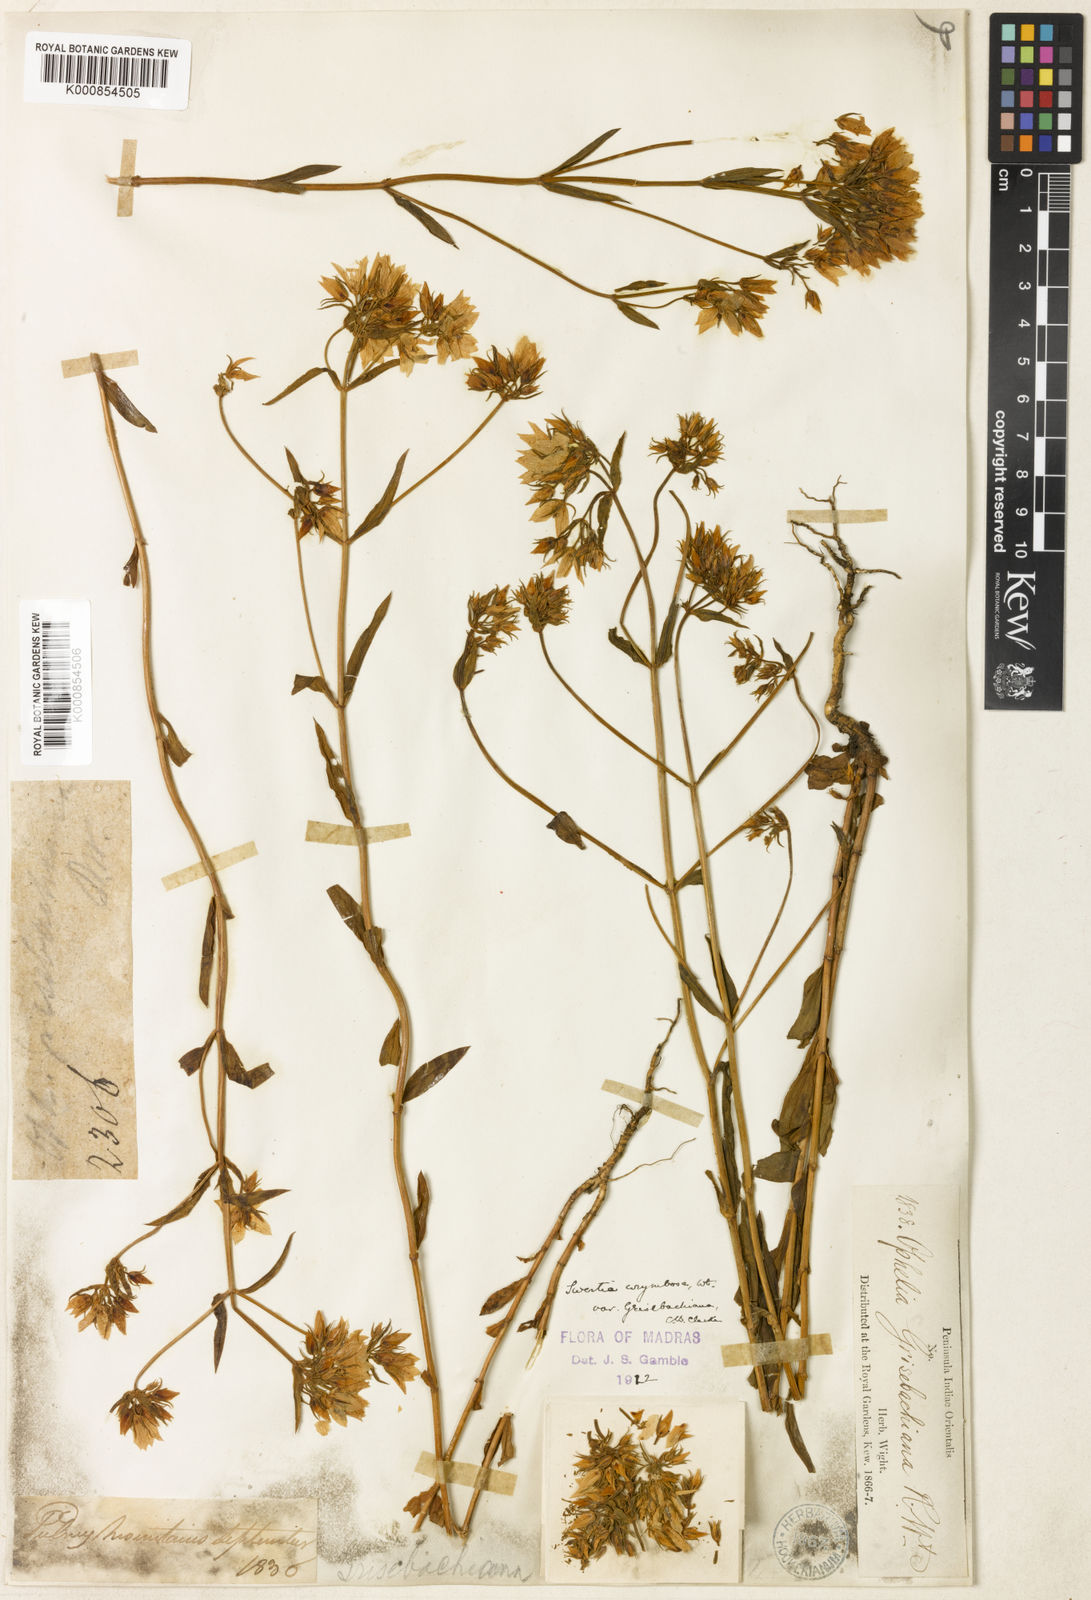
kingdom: Plantae
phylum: Tracheophyta
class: Magnoliopsida
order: Gentianales
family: Gentianaceae
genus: Swertia
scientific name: Swertia corymbosa
